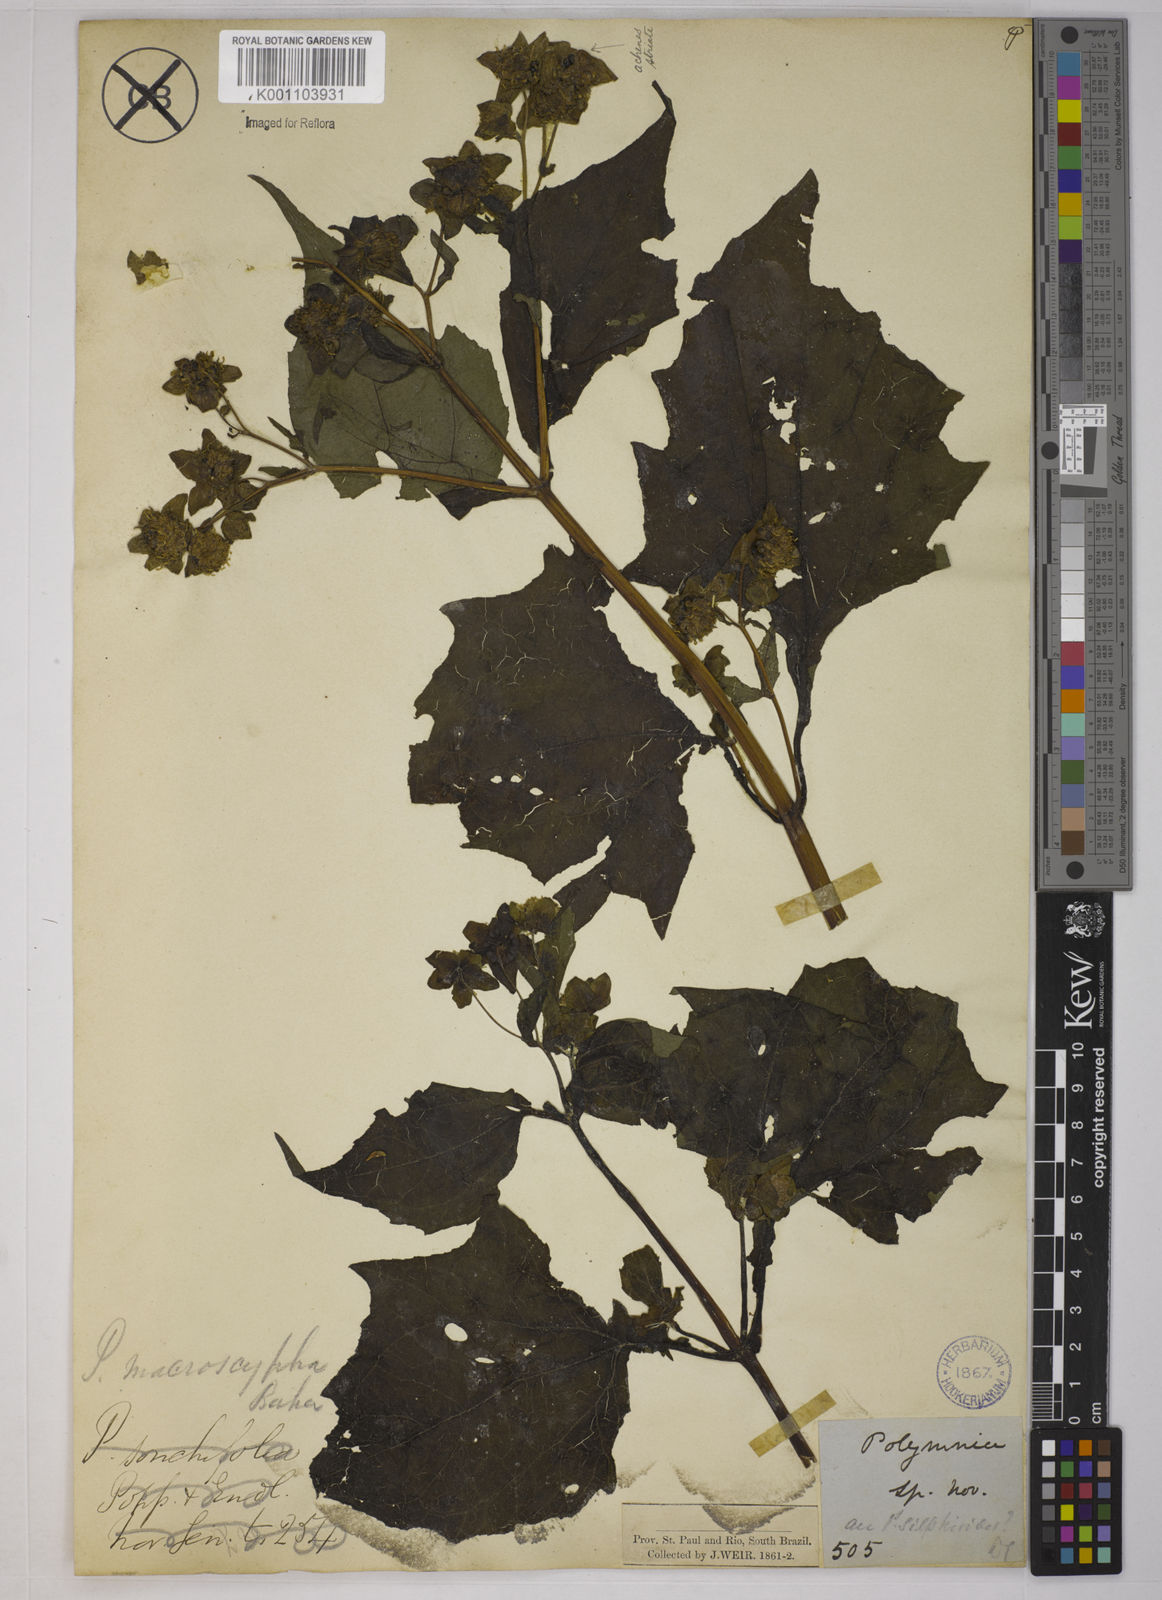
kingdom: Plantae
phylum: Tracheophyta
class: Magnoliopsida
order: Asterales
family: Asteraceae
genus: Smallanthus
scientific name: Smallanthus connatus
